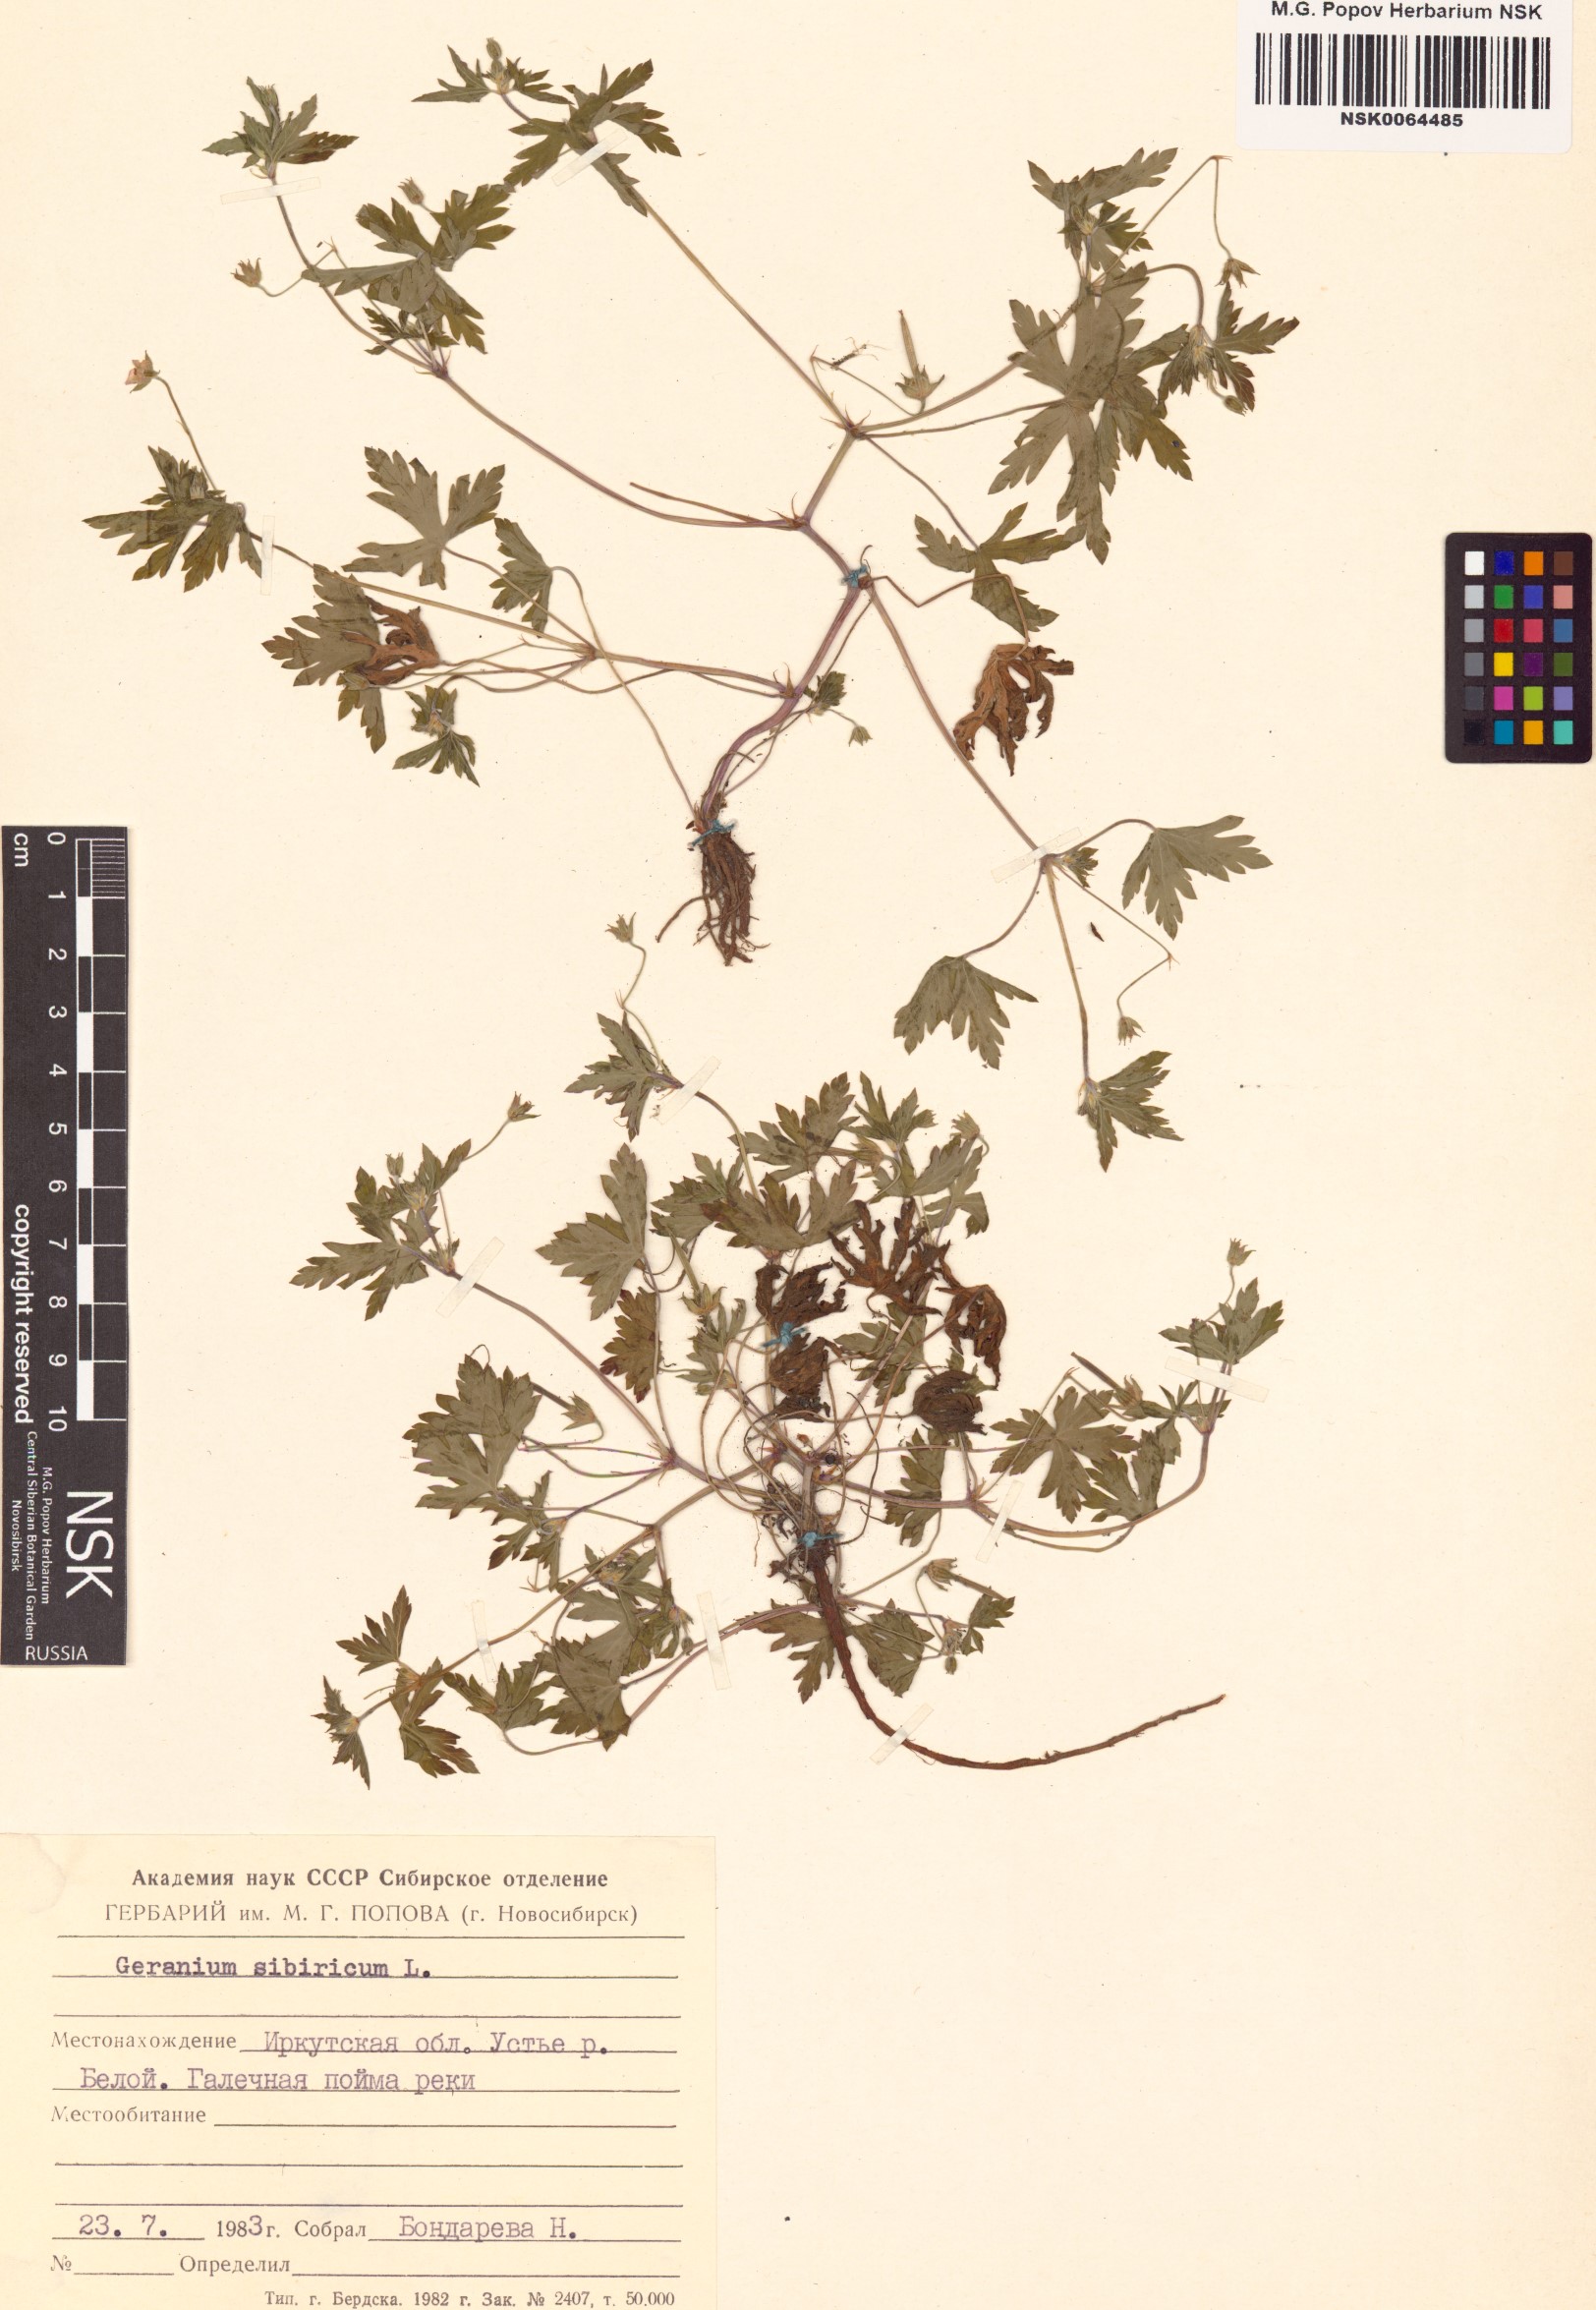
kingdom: Plantae
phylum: Tracheophyta
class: Magnoliopsida
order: Geraniales
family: Geraniaceae
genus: Geranium
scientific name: Geranium sibiricum
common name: Siberian crane's-bill
